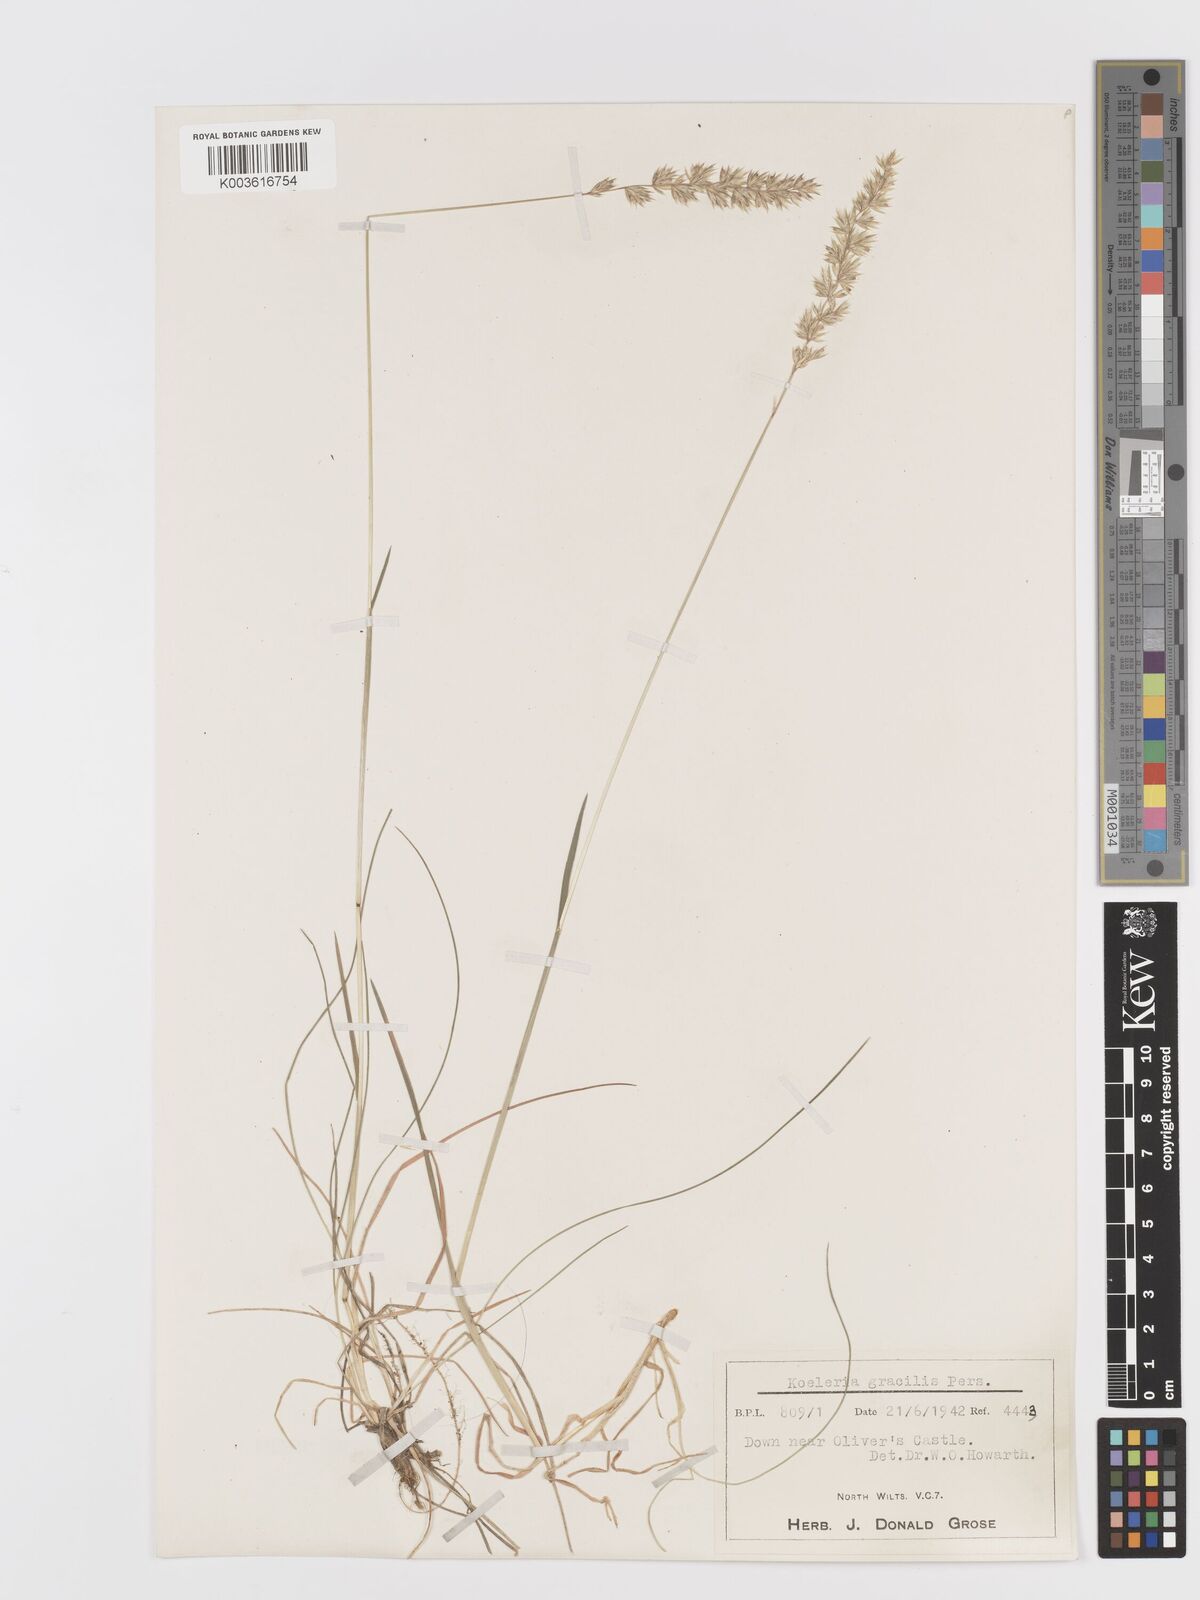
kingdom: Plantae
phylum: Tracheophyta
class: Liliopsida
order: Poales
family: Poaceae
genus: Koeleria
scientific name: Koeleria
